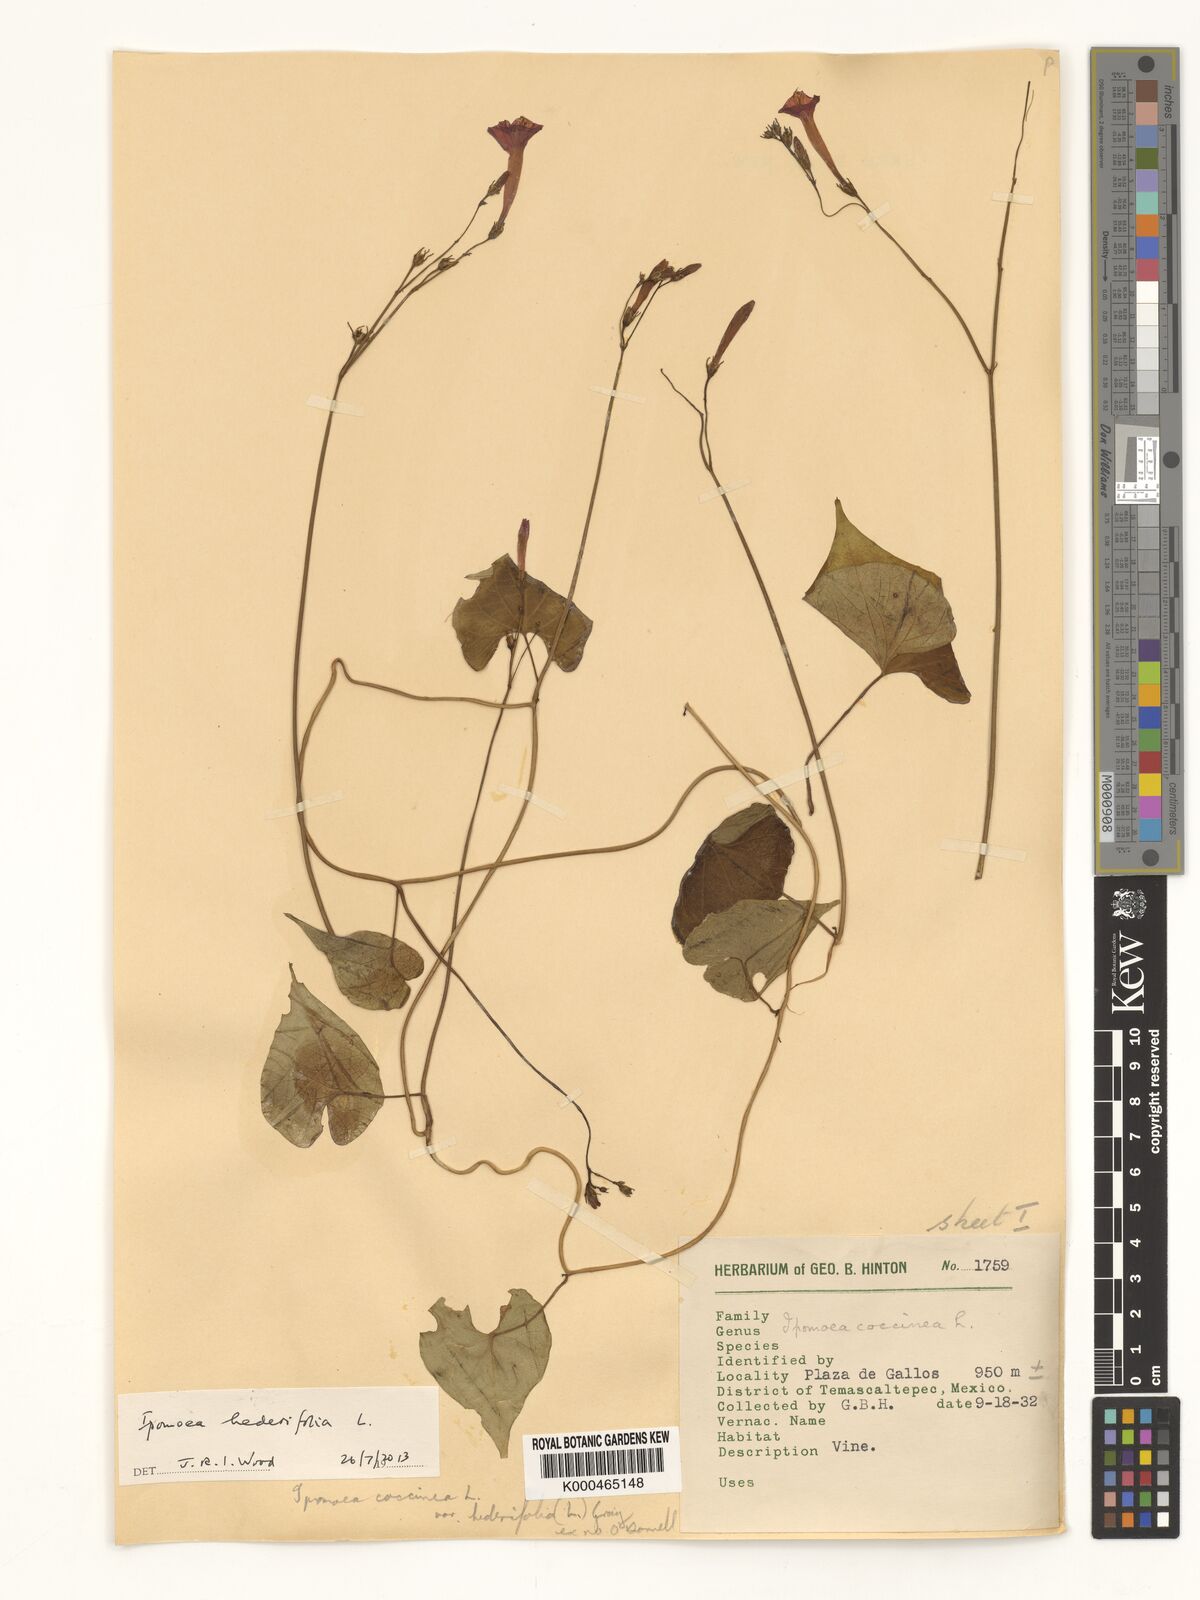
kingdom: Plantae
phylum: Tracheophyta
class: Magnoliopsida
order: Solanales
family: Convolvulaceae
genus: Ipomoea
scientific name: Ipomoea hederifolia
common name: Ivy-leaf morning-glory
